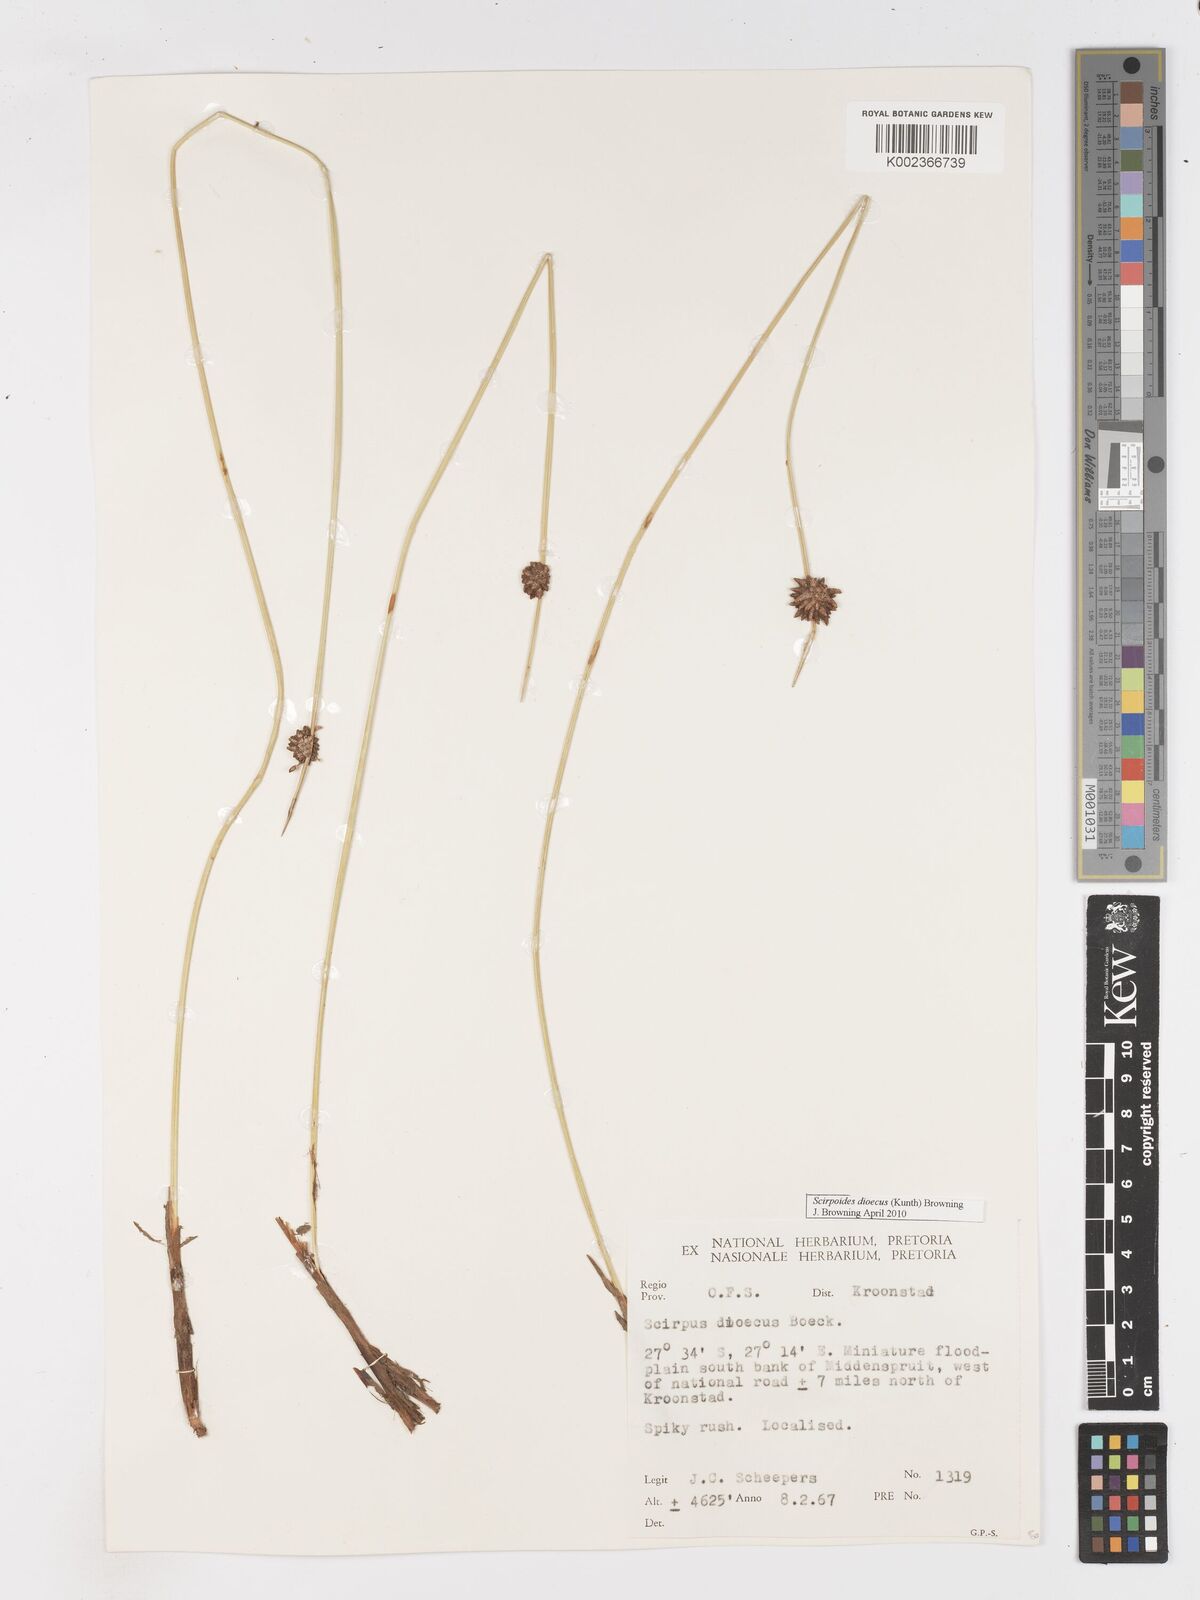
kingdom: Plantae
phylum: Tracheophyta
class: Liliopsida
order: Poales
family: Cyperaceae
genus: Afroscirpoides
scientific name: Afroscirpoides dioeca
